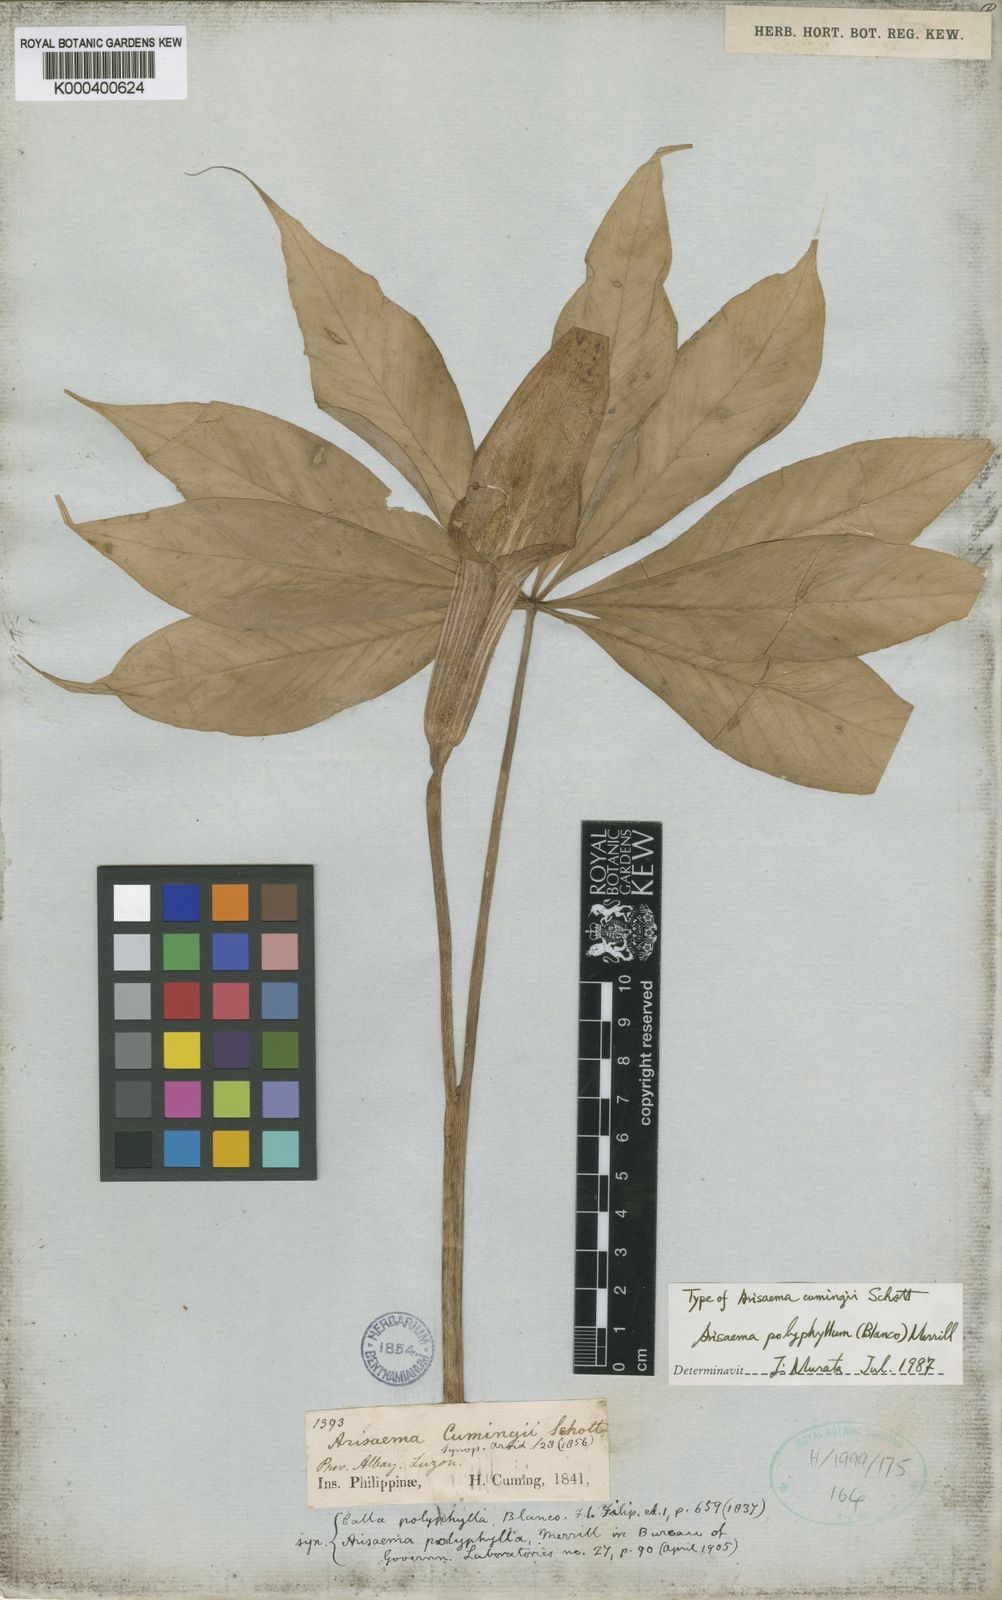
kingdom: Plantae
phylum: Tracheophyta
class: Liliopsida
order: Alismatales
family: Araceae
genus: Arisaema
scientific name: Arisaema polyphyllum
